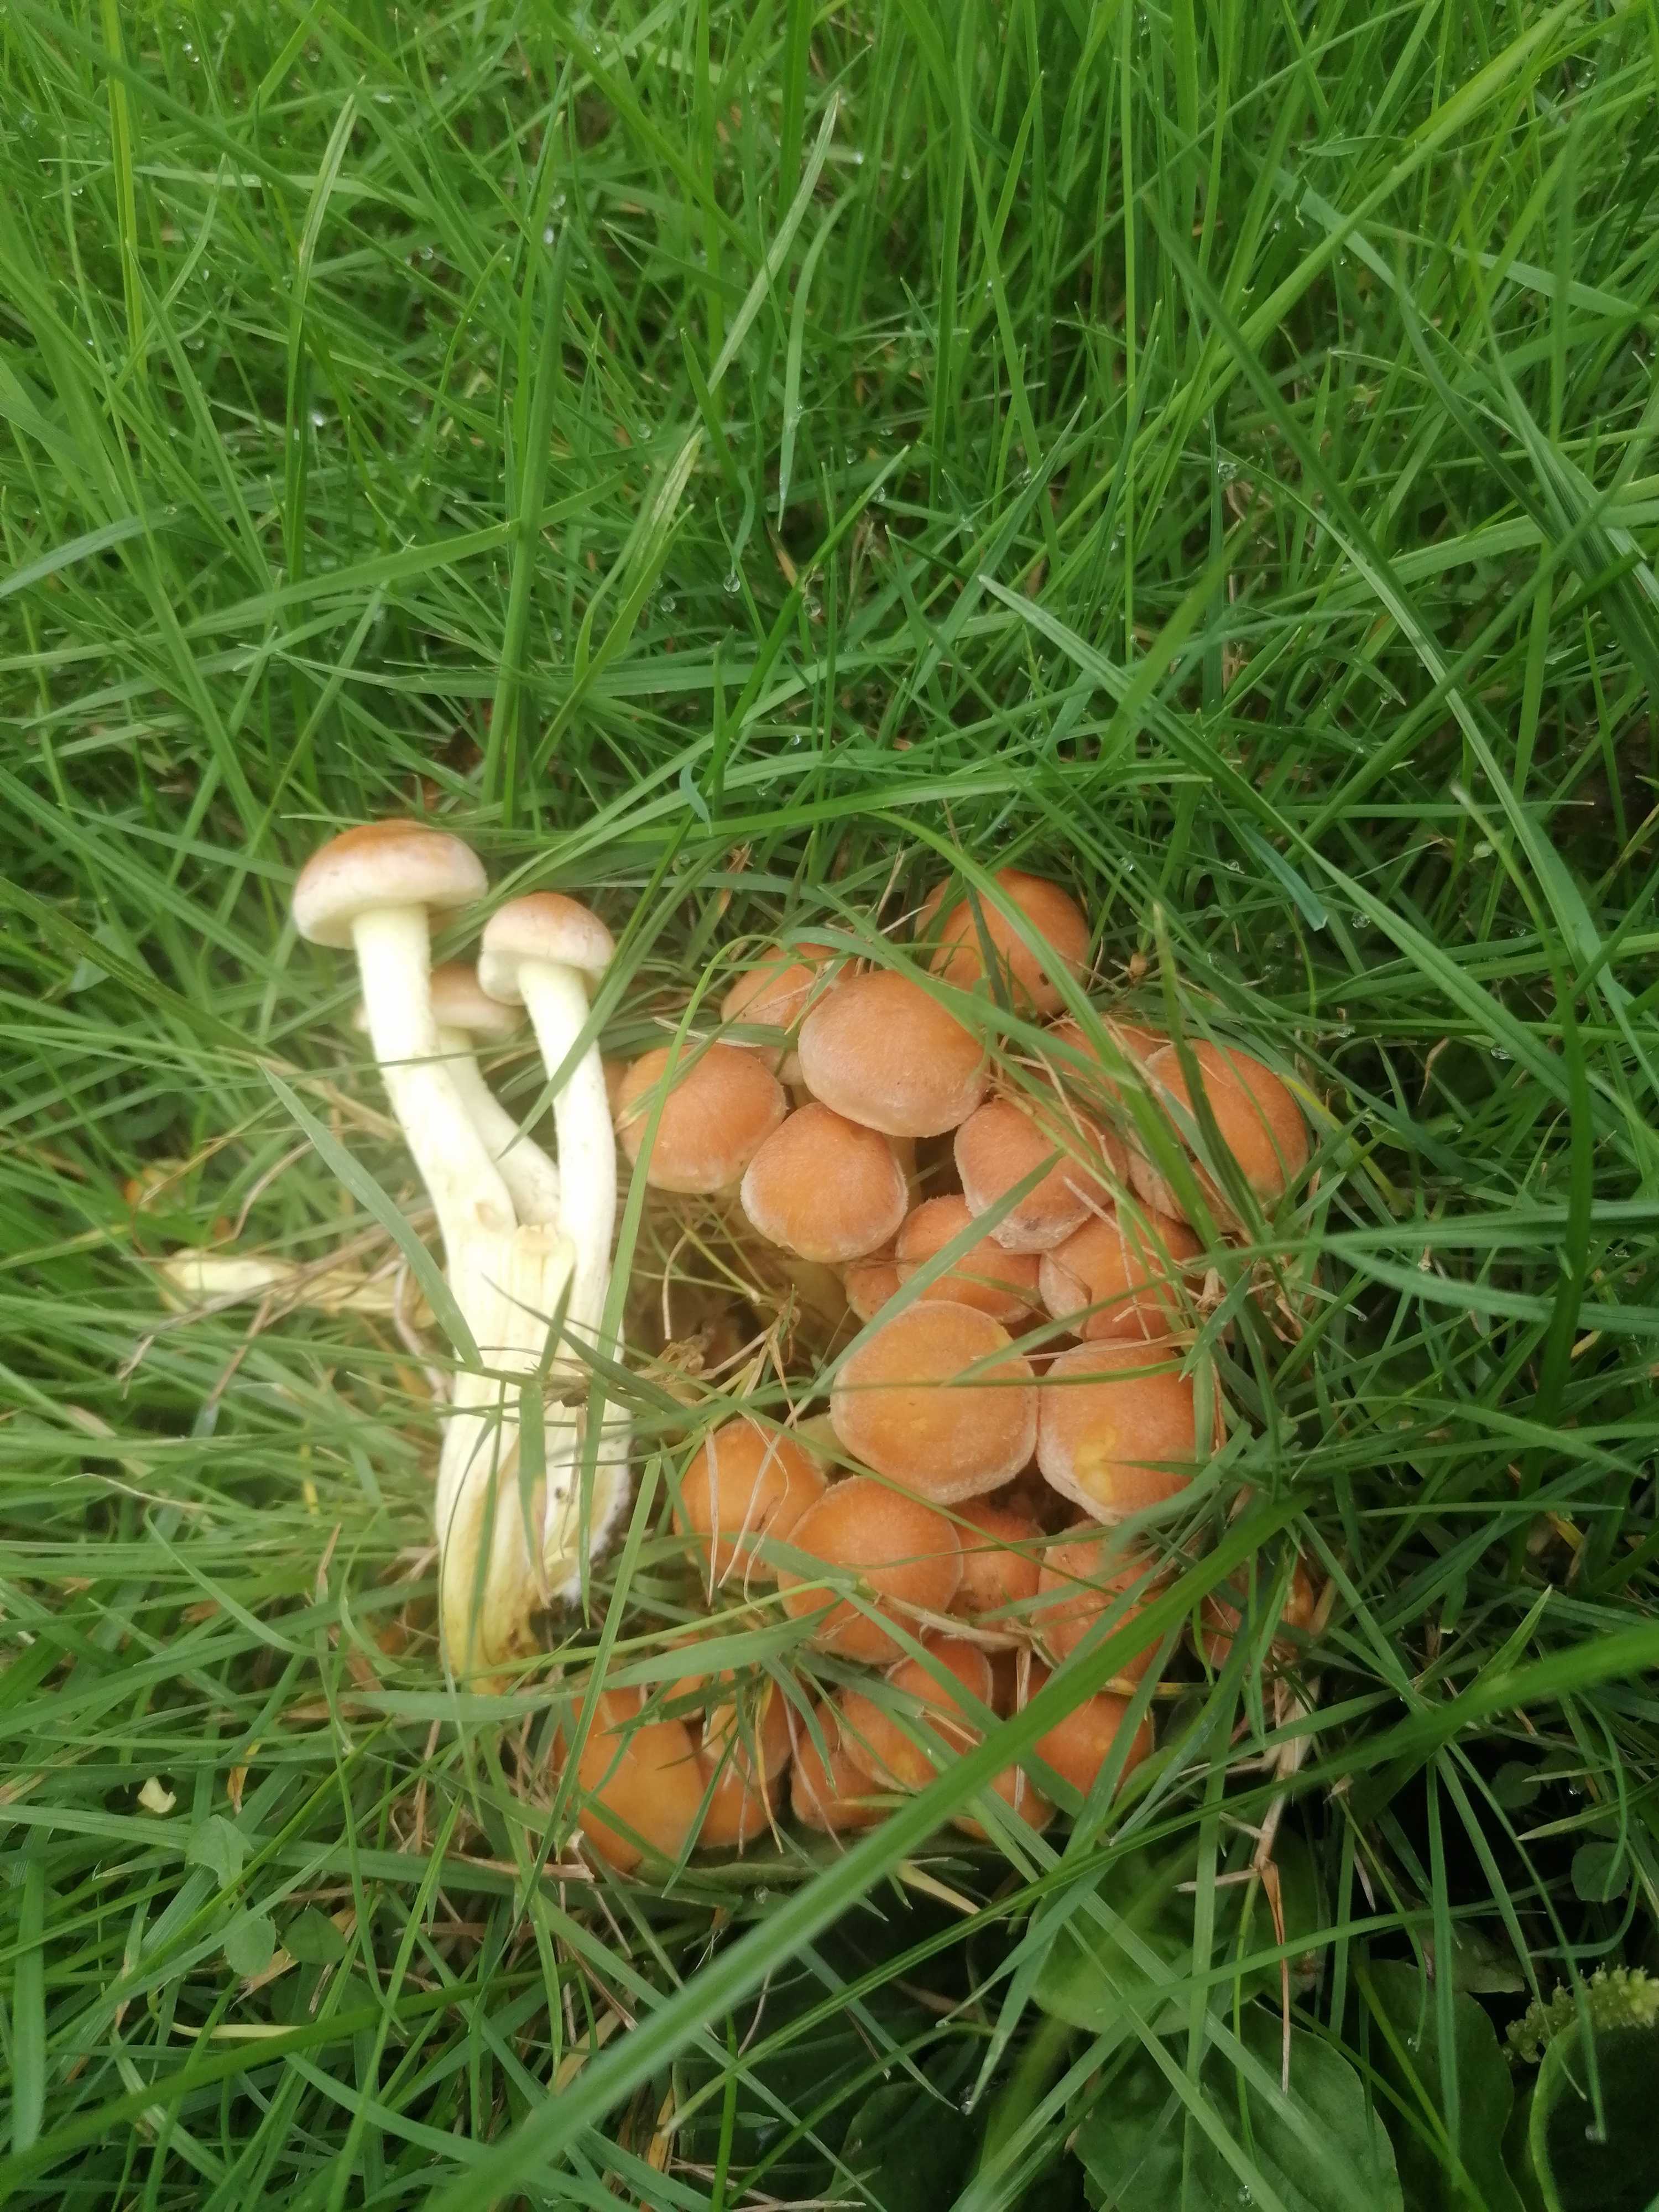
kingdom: Fungi
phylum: Basidiomycota
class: Agaricomycetes
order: Agaricales
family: Strophariaceae
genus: Hypholoma
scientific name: Hypholoma fasciculare
